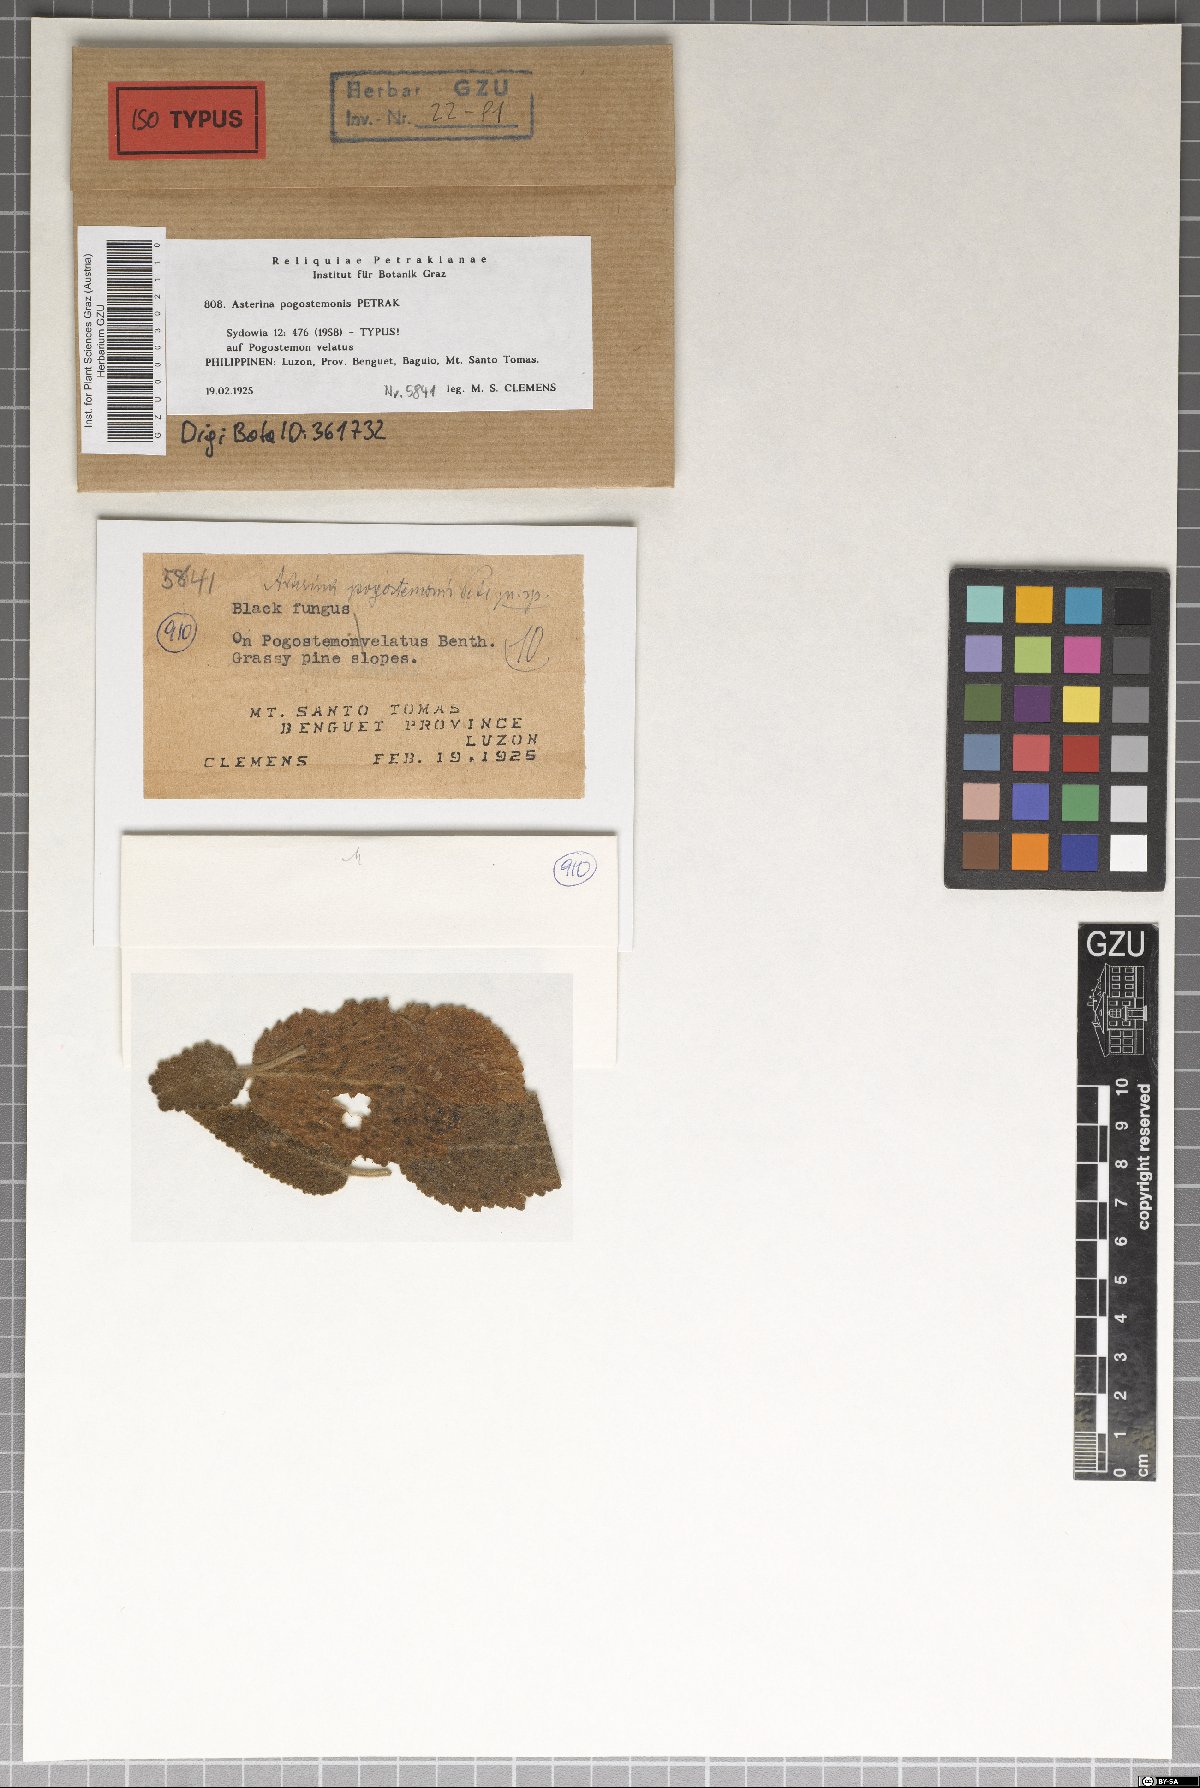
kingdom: Fungi
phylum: Ascomycota
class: Dothideomycetes
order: Asterinales
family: Asterinaceae
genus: Asterina
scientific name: Asterina pogostemonis
